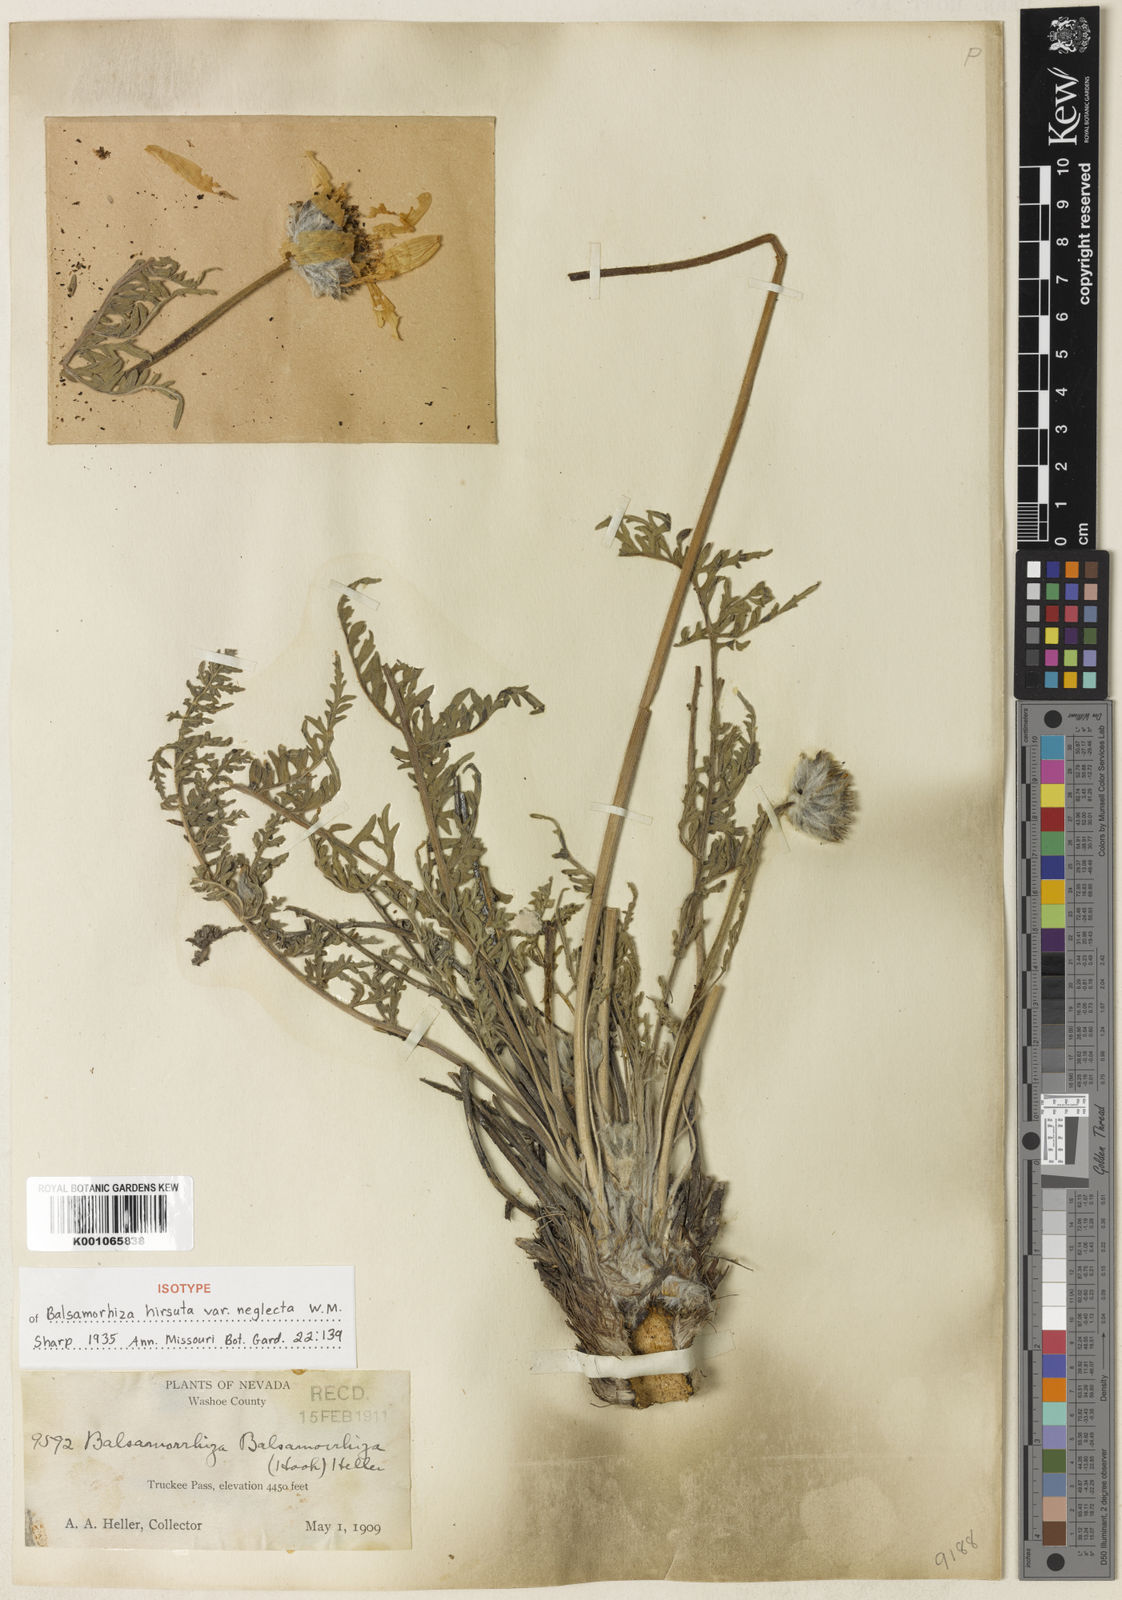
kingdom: Plantae
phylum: Tracheophyta
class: Magnoliopsida
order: Asterales
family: Asteraceae
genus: Balsamorhiza
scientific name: Balsamorhiza hookeri
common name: Hooker's balsamroot
